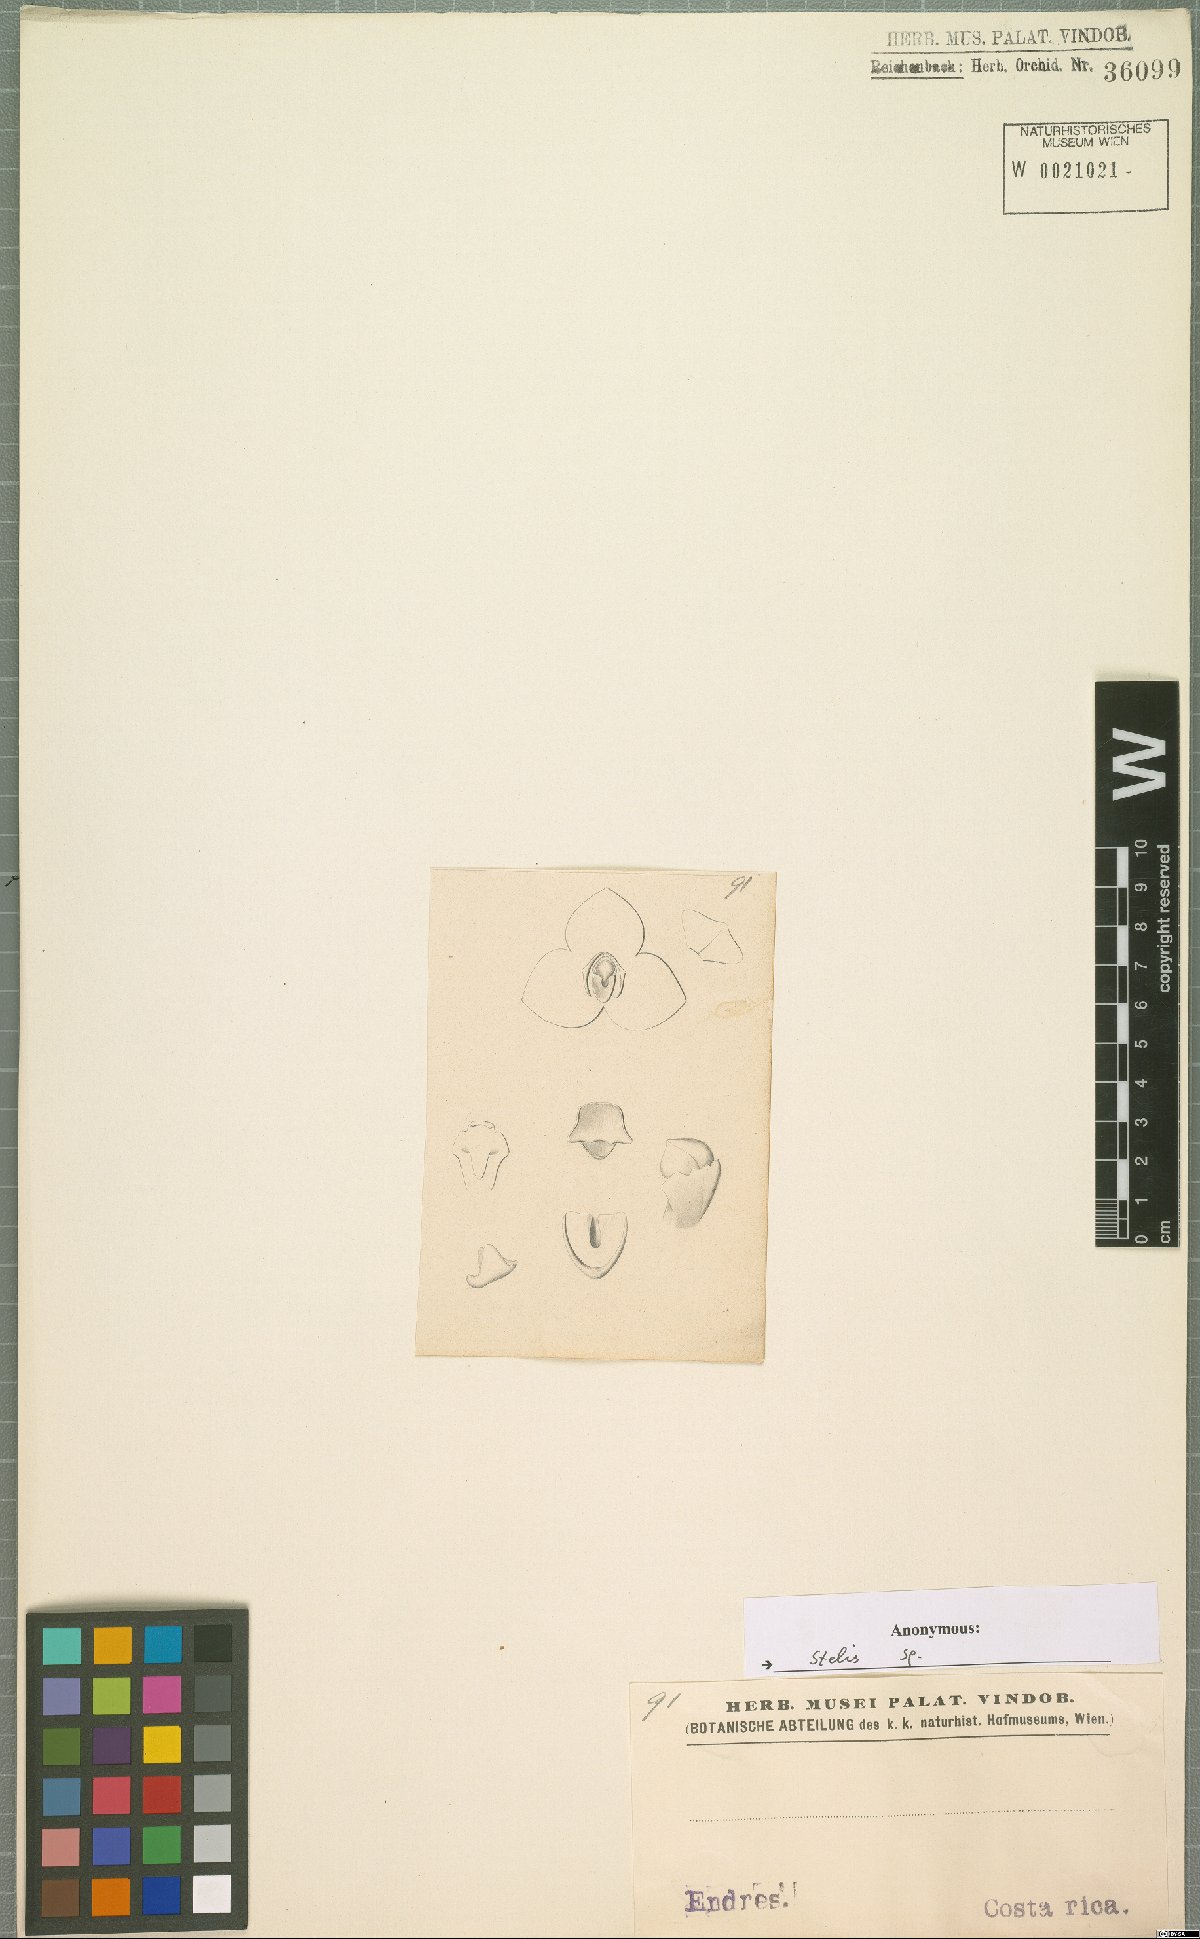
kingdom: Plantae
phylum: Tracheophyta
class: Liliopsida
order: Asparagales
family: Orchidaceae
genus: Stelis
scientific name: Stelis
